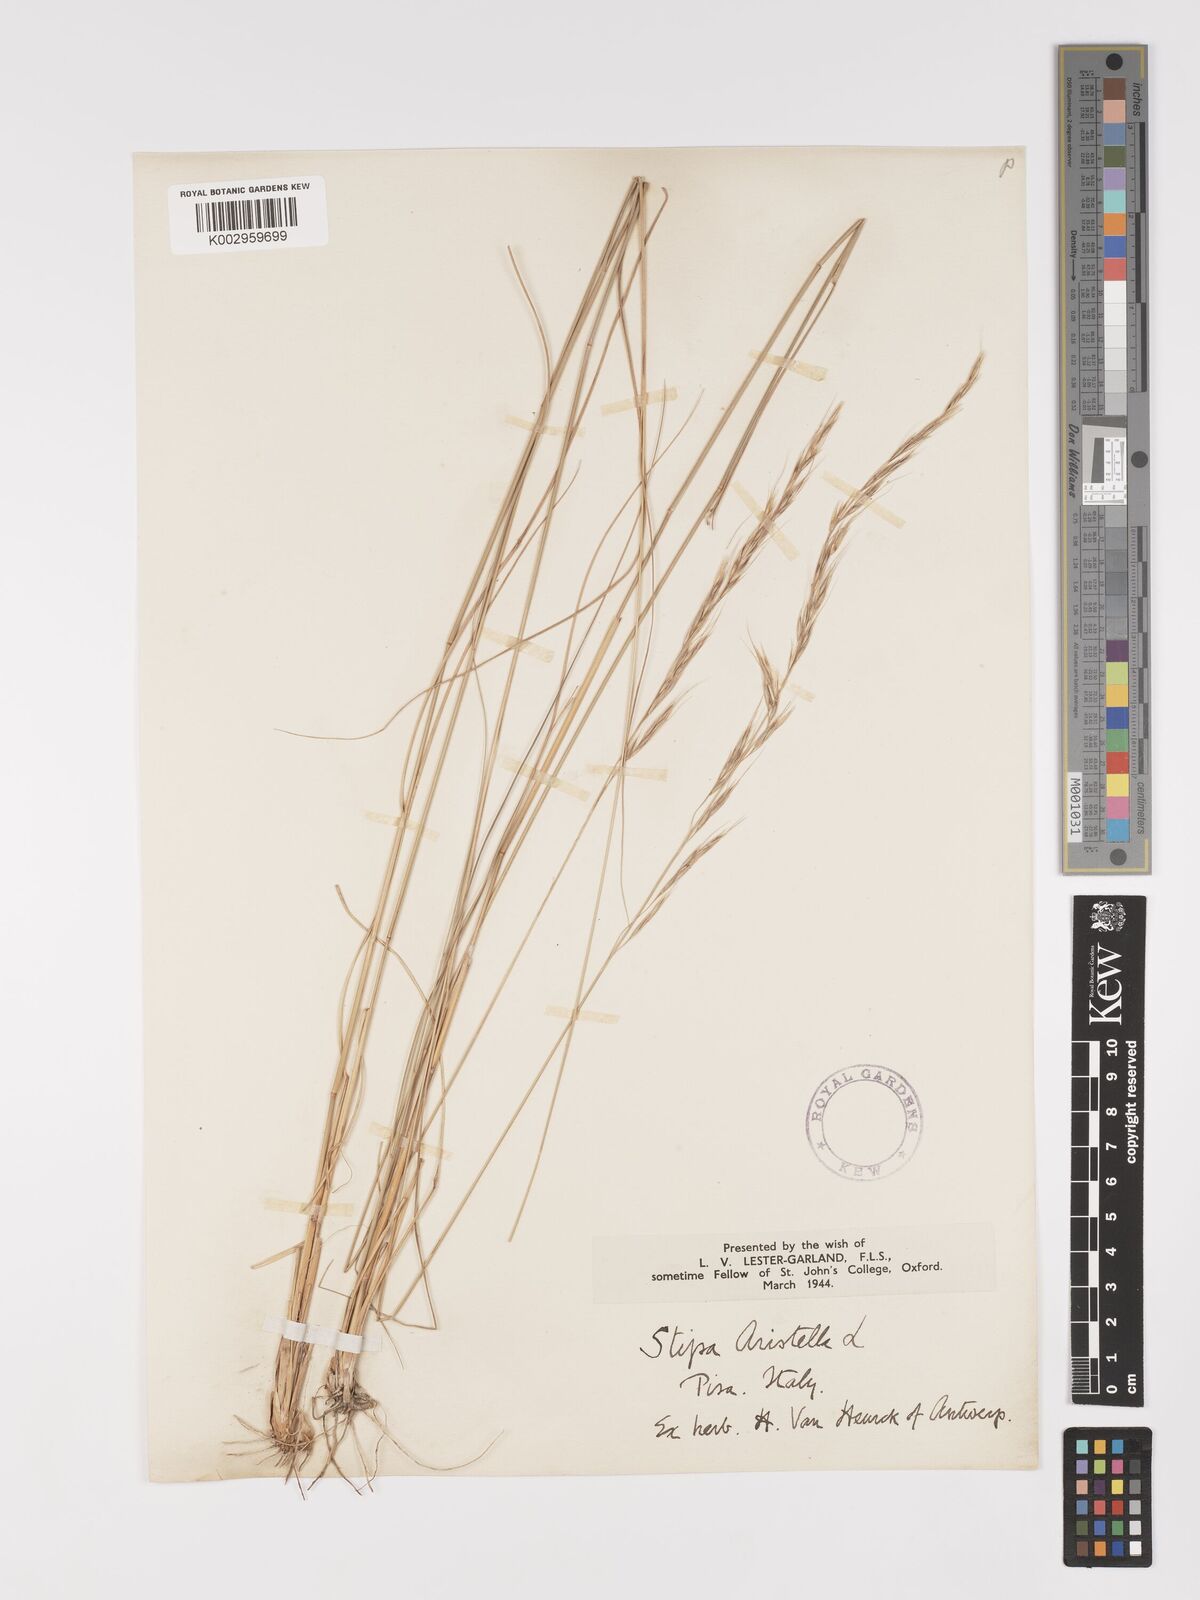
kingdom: Plantae
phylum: Tracheophyta
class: Liliopsida
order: Poales
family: Poaceae
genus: Achnatherum
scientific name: Achnatherum bromoides
